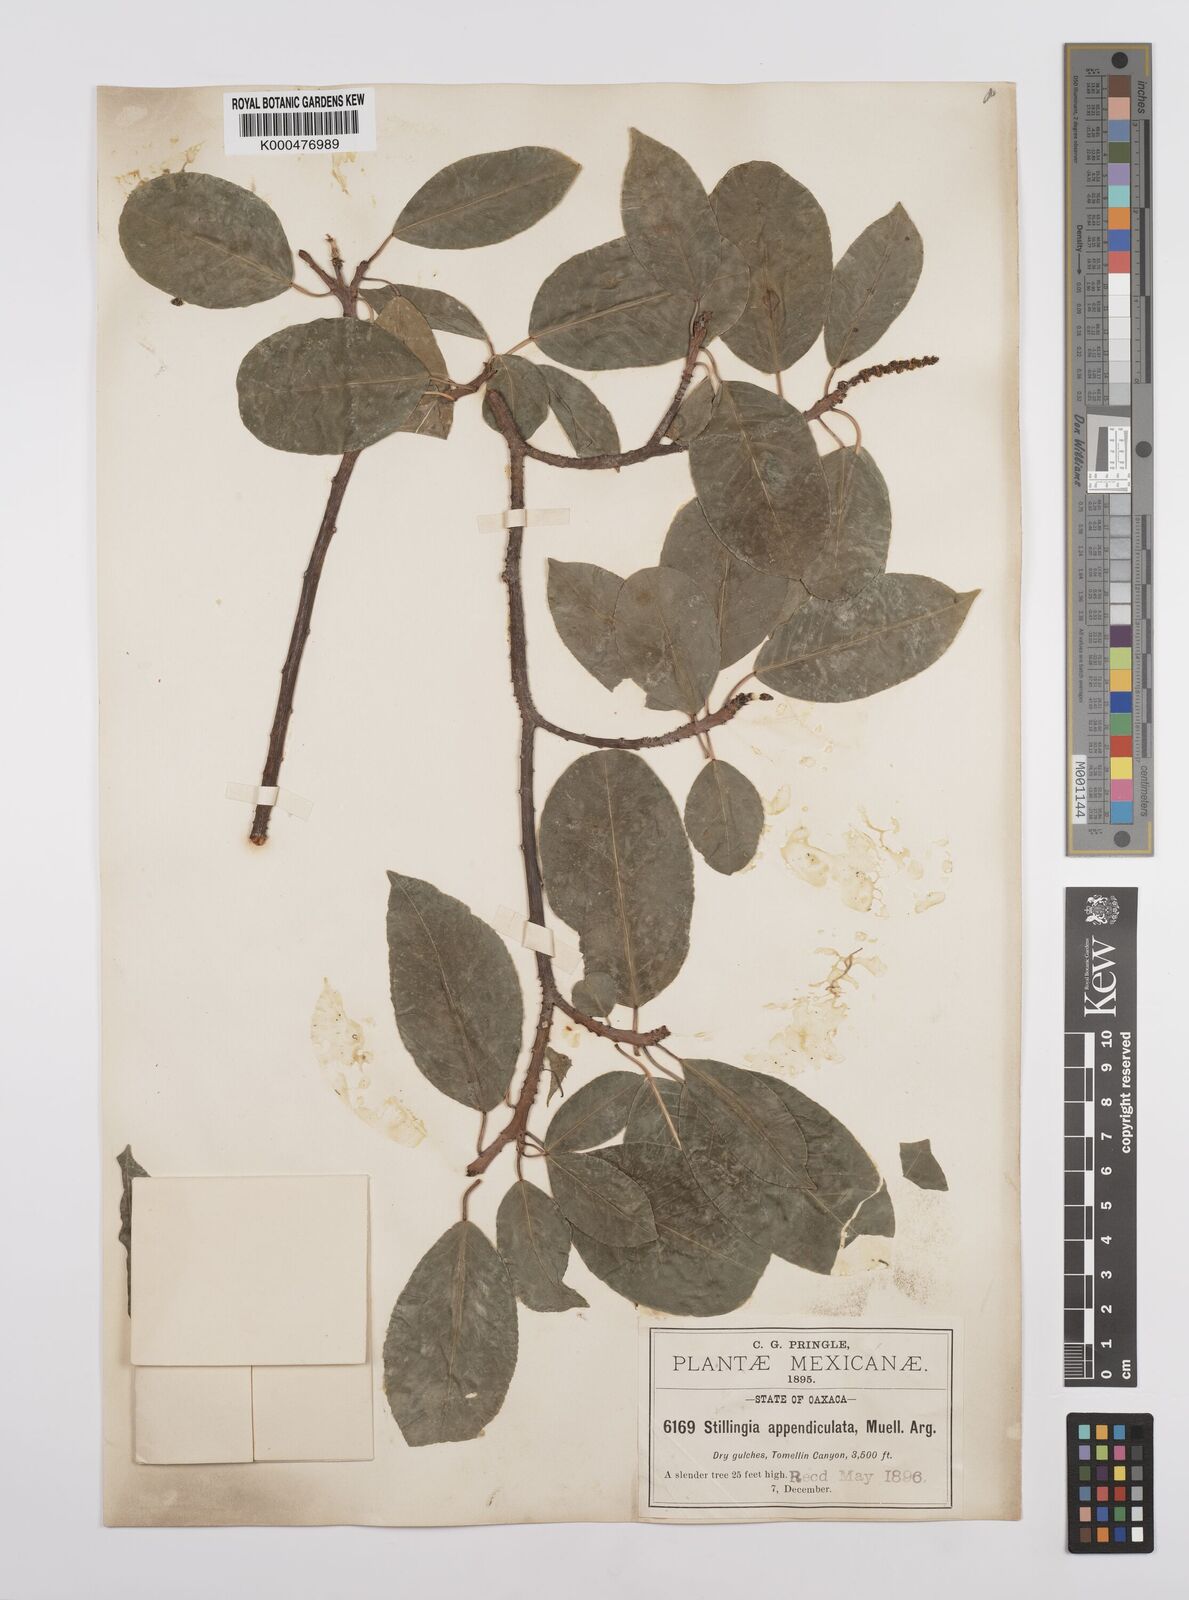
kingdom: Plantae
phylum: Tracheophyta
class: Magnoliopsida
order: Malpighiales
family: Euphorbiaceae
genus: Sebastiania
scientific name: Sebastiania
